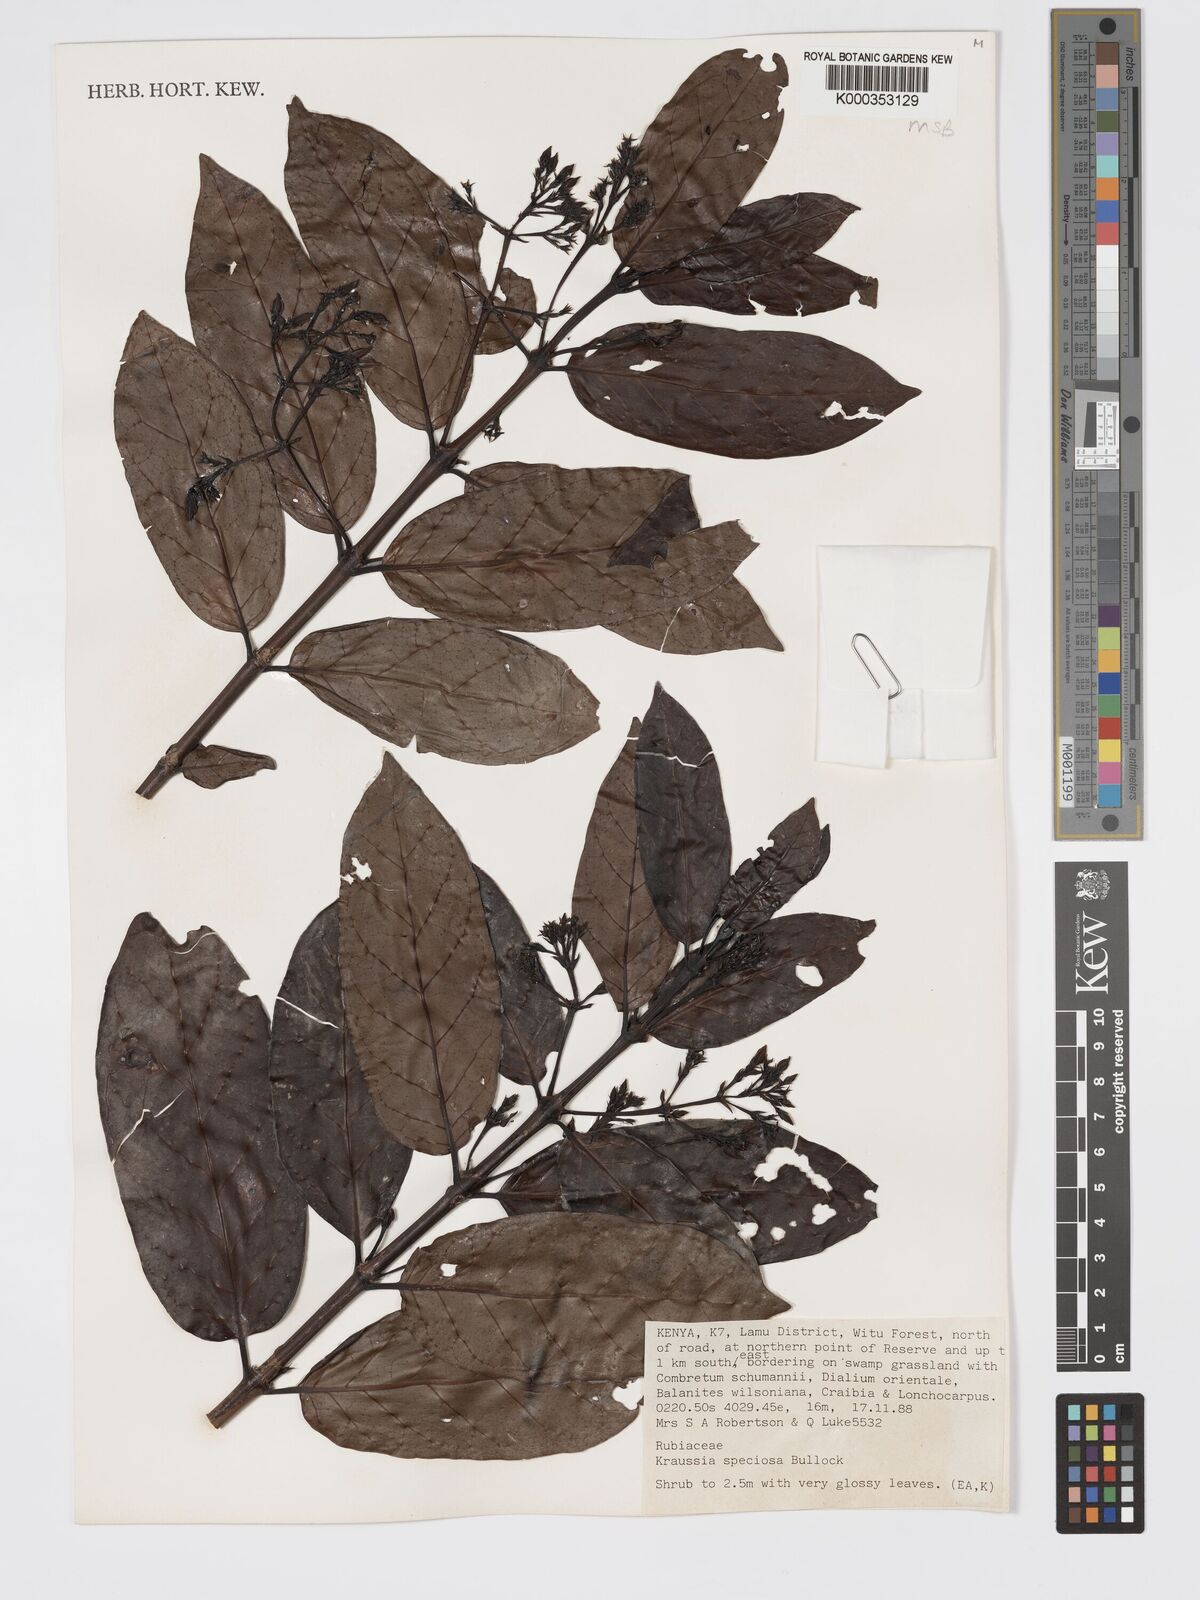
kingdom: Plantae
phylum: Tracheophyta
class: Magnoliopsida
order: Gentianales
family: Rubiaceae
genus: Kraussia
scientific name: Kraussia speciosa
